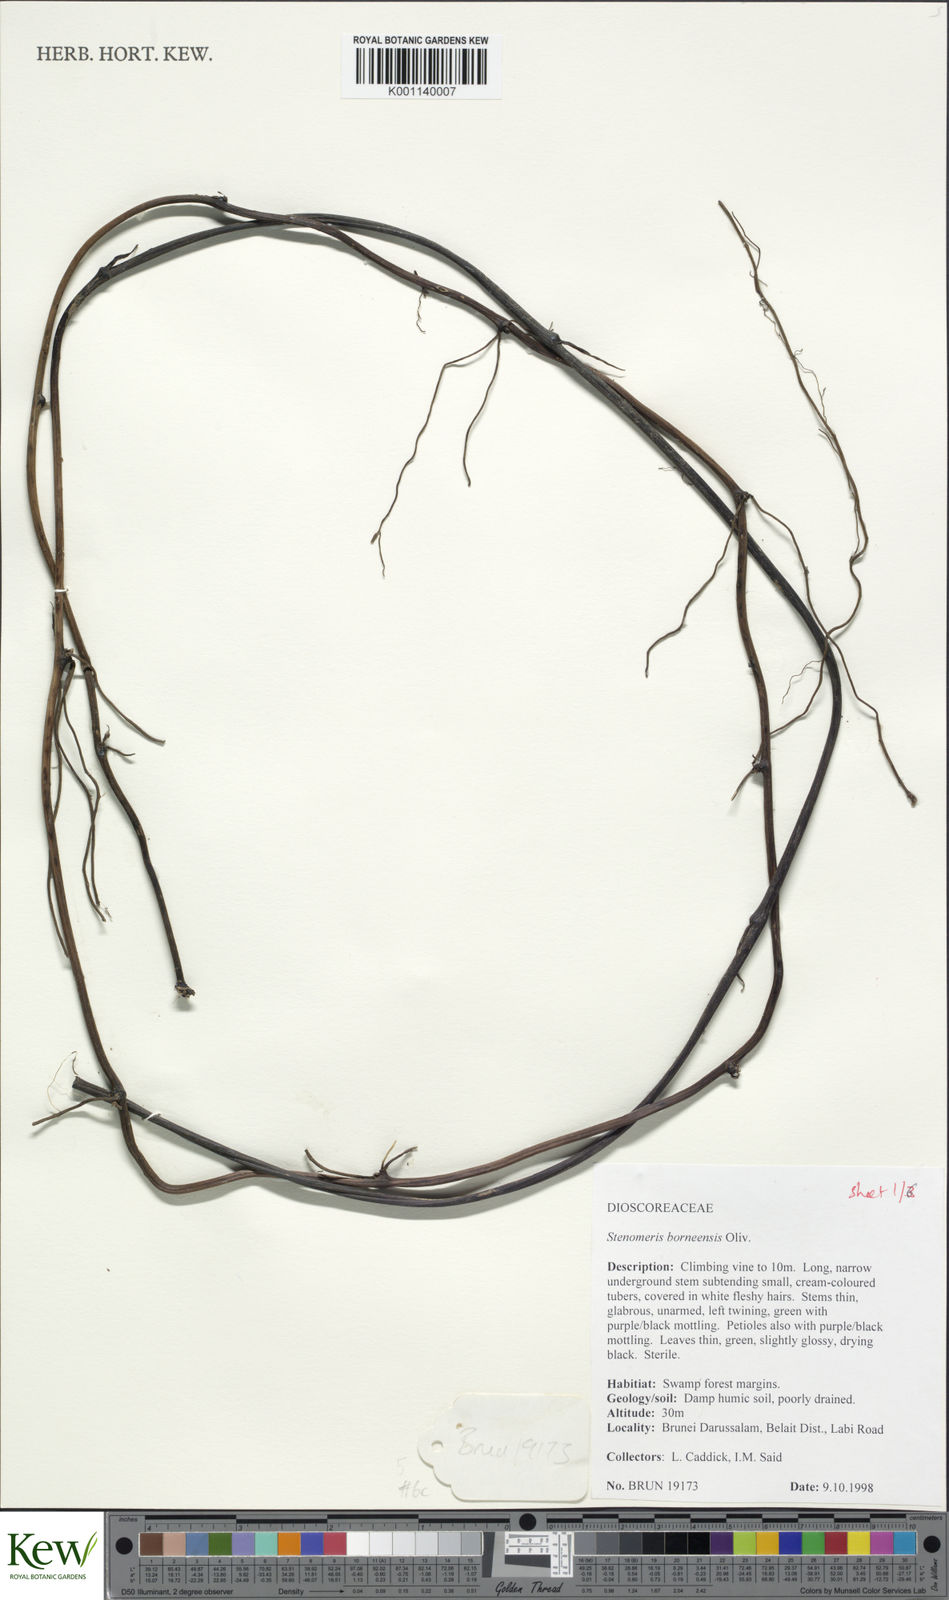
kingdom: Plantae
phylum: Tracheophyta
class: Liliopsida
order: Dioscoreales
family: Dioscoreaceae
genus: Stenomeris
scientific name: Stenomeris borneensis
